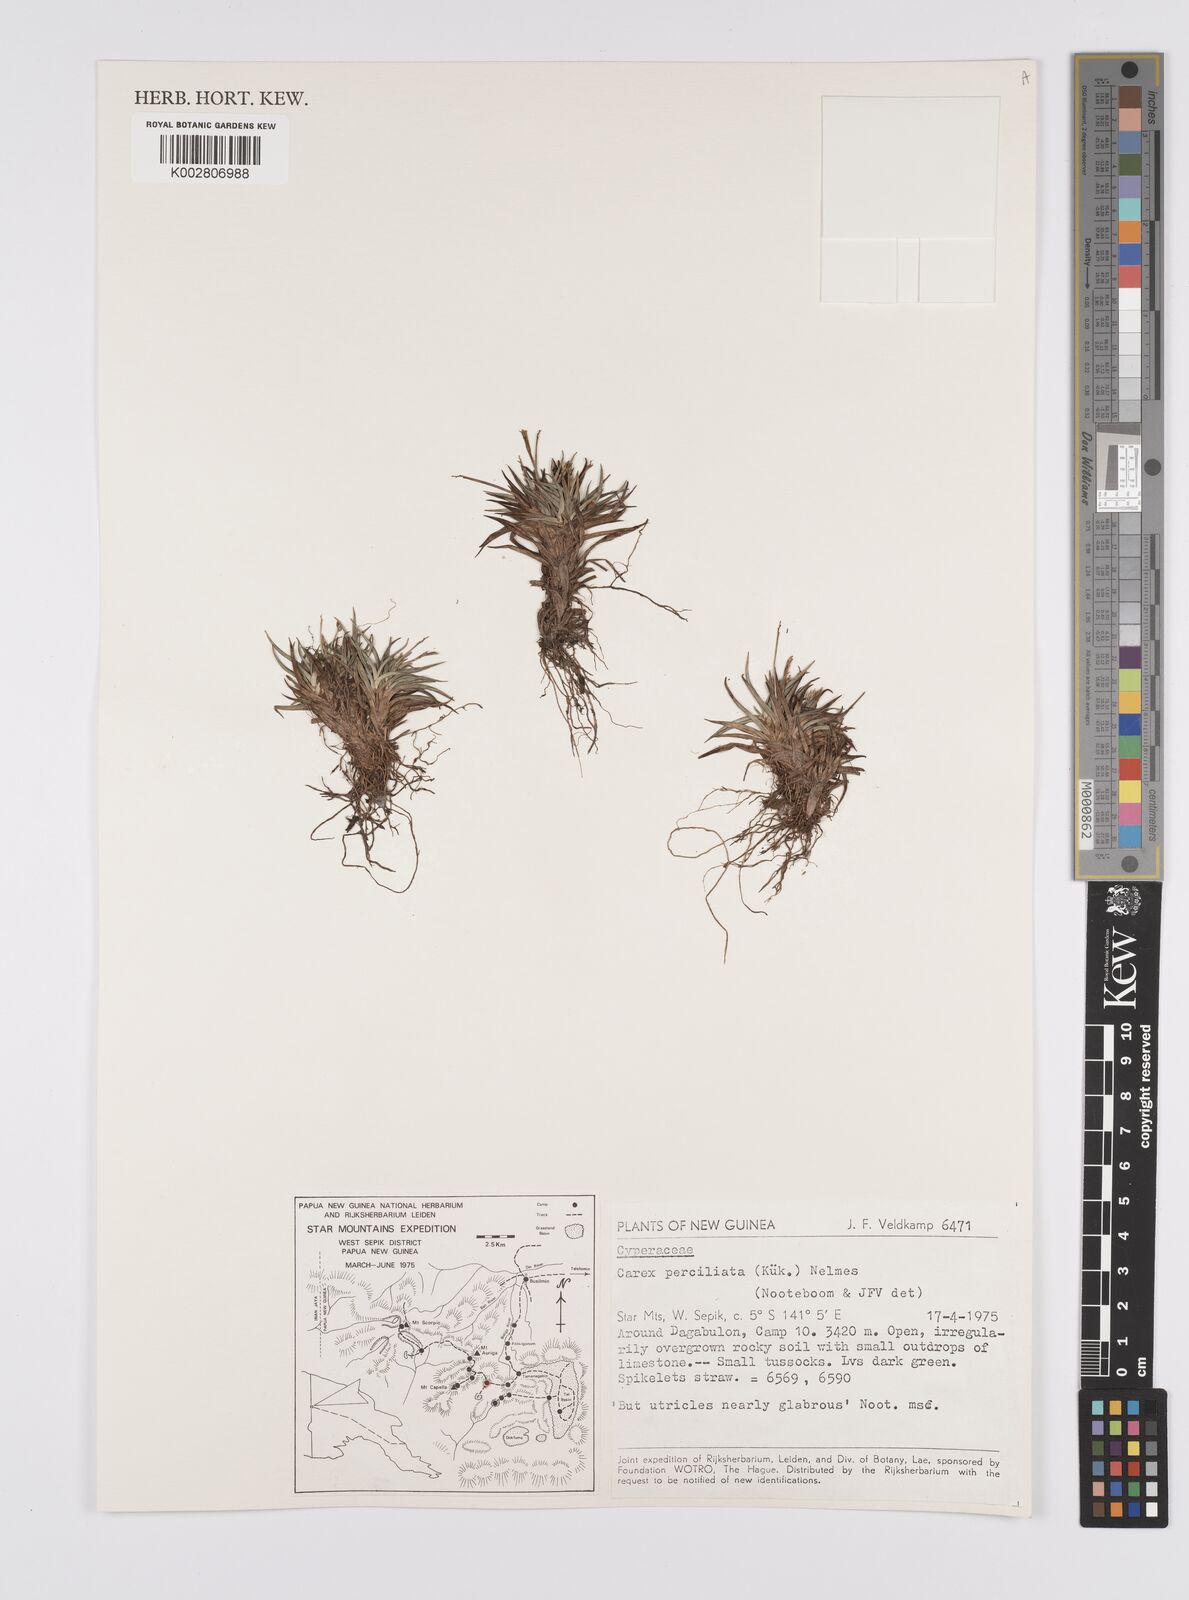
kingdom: Plantae
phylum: Tracheophyta
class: Liliopsida
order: Poales
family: Cyperaceae
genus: Carex
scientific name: Carex breviculmis
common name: Asian shortstem sedge
